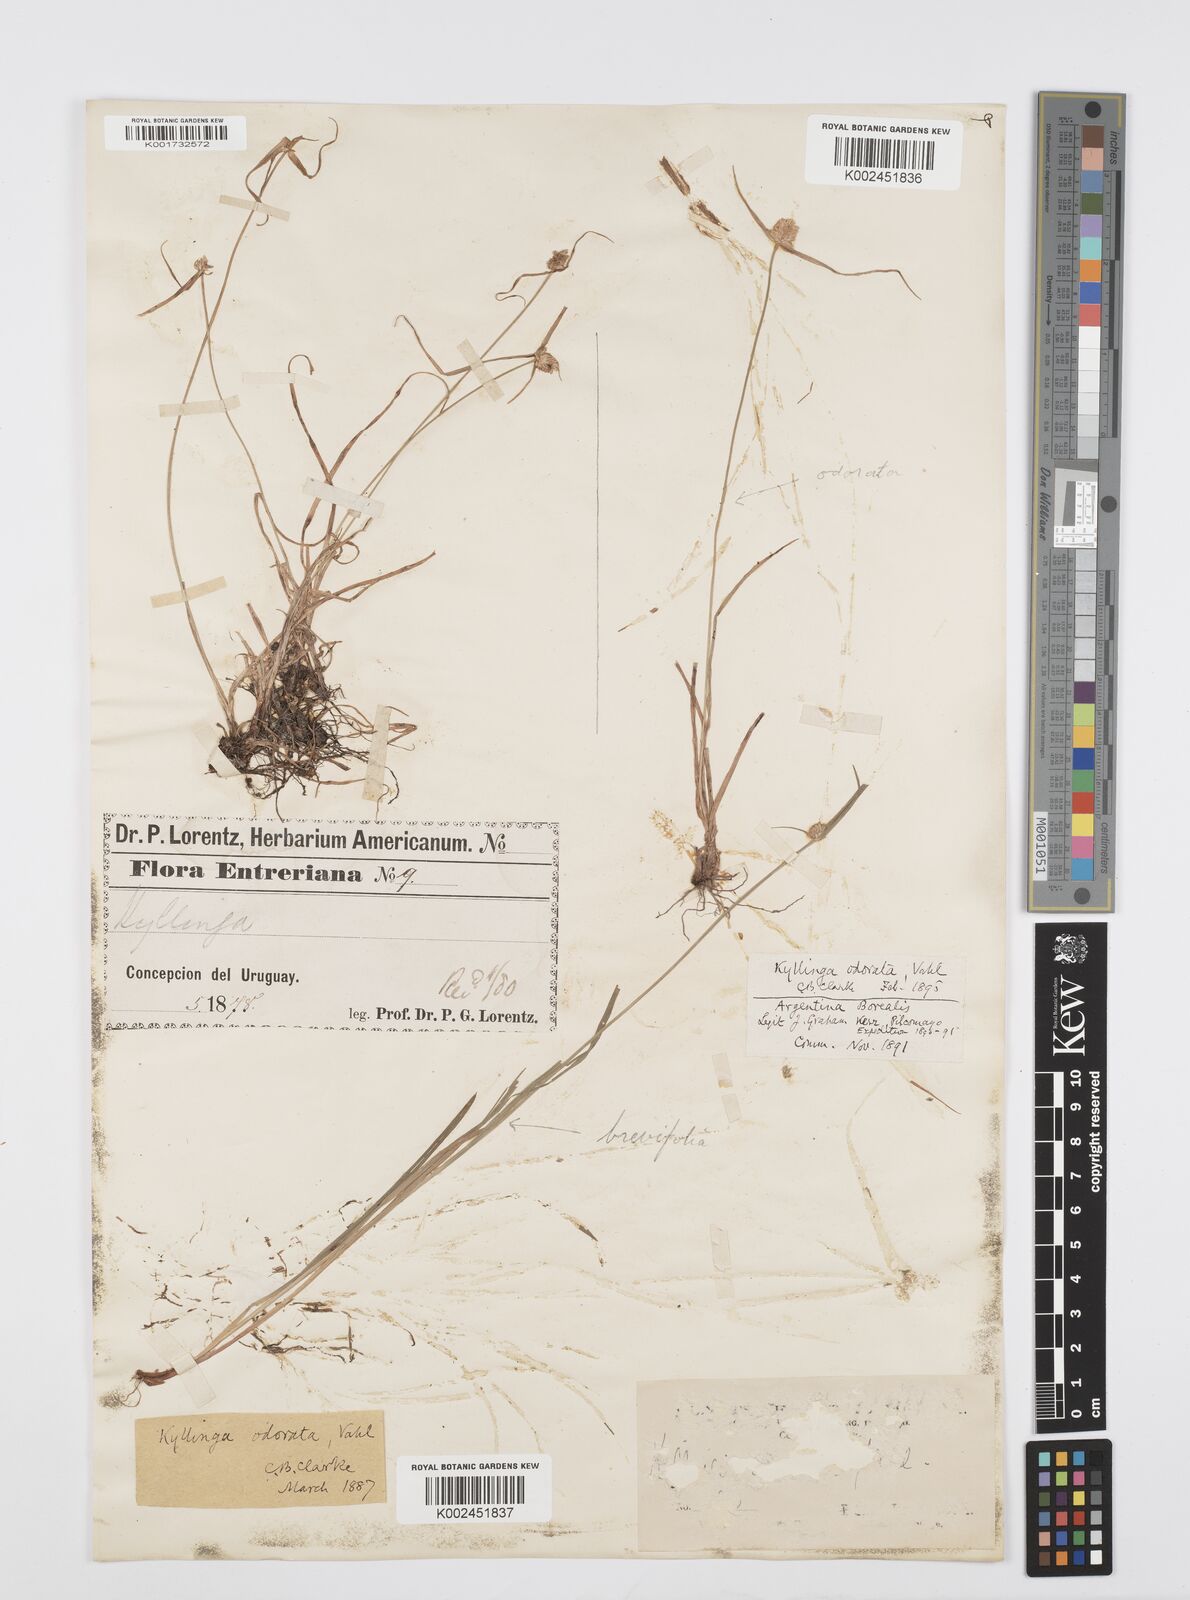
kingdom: Plantae
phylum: Tracheophyta
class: Liliopsida
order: Poales
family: Cyperaceae
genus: Cyperus
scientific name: Cyperus
